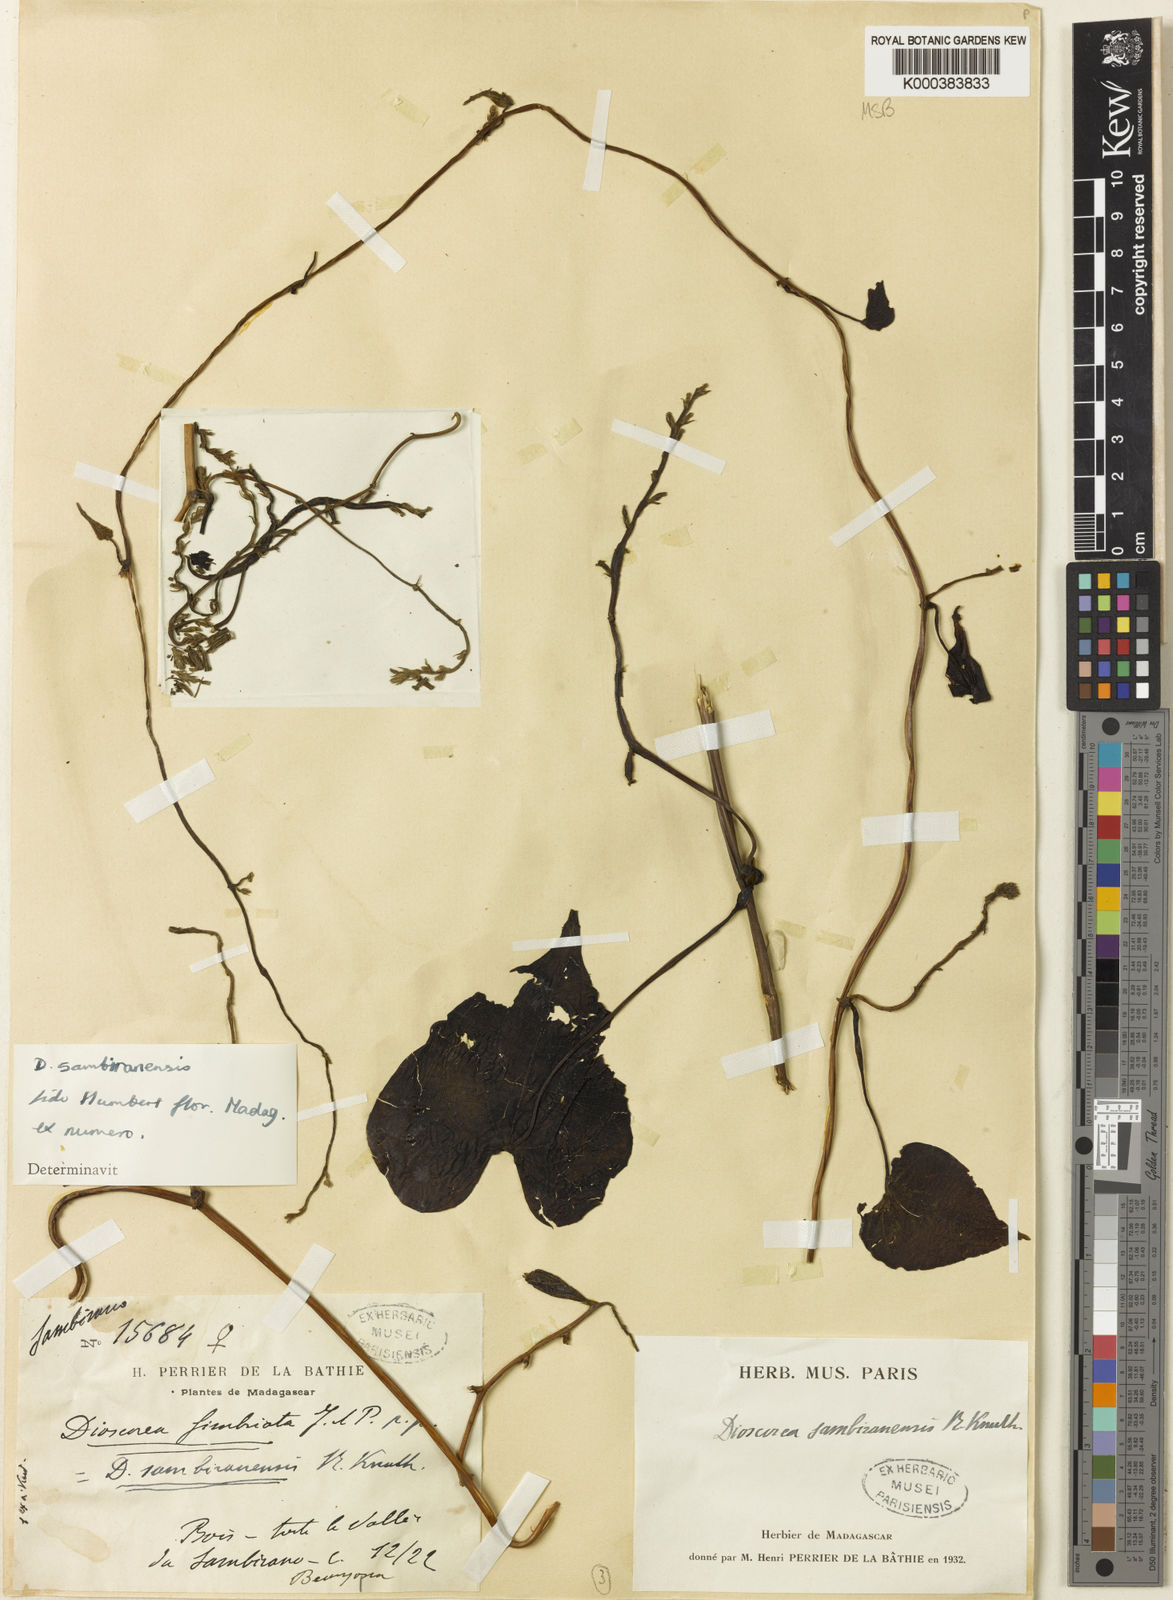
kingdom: Plantae
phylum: Tracheophyta
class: Liliopsida
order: Dioscoreales
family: Dioscoreaceae
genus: Dioscorea
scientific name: Dioscorea sambiranensis
